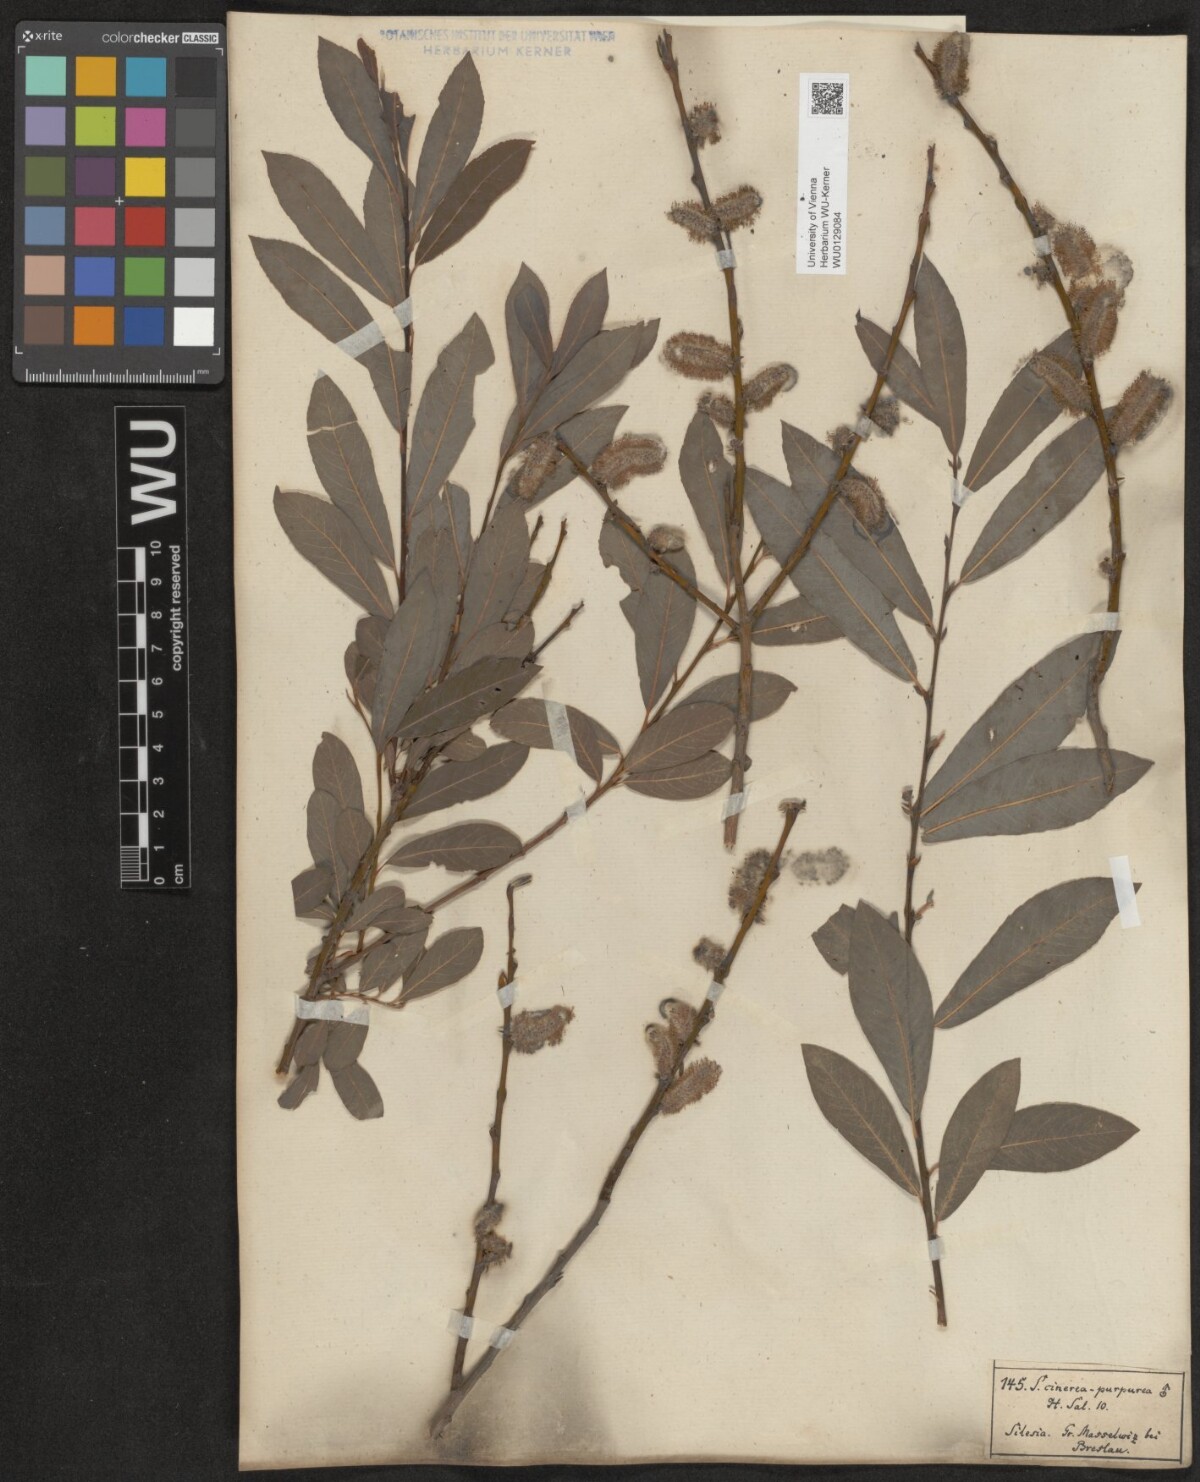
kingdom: Plantae
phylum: Tracheophyta
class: Magnoliopsida
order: Malpighiales
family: Salicaceae
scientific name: Salicaceae
